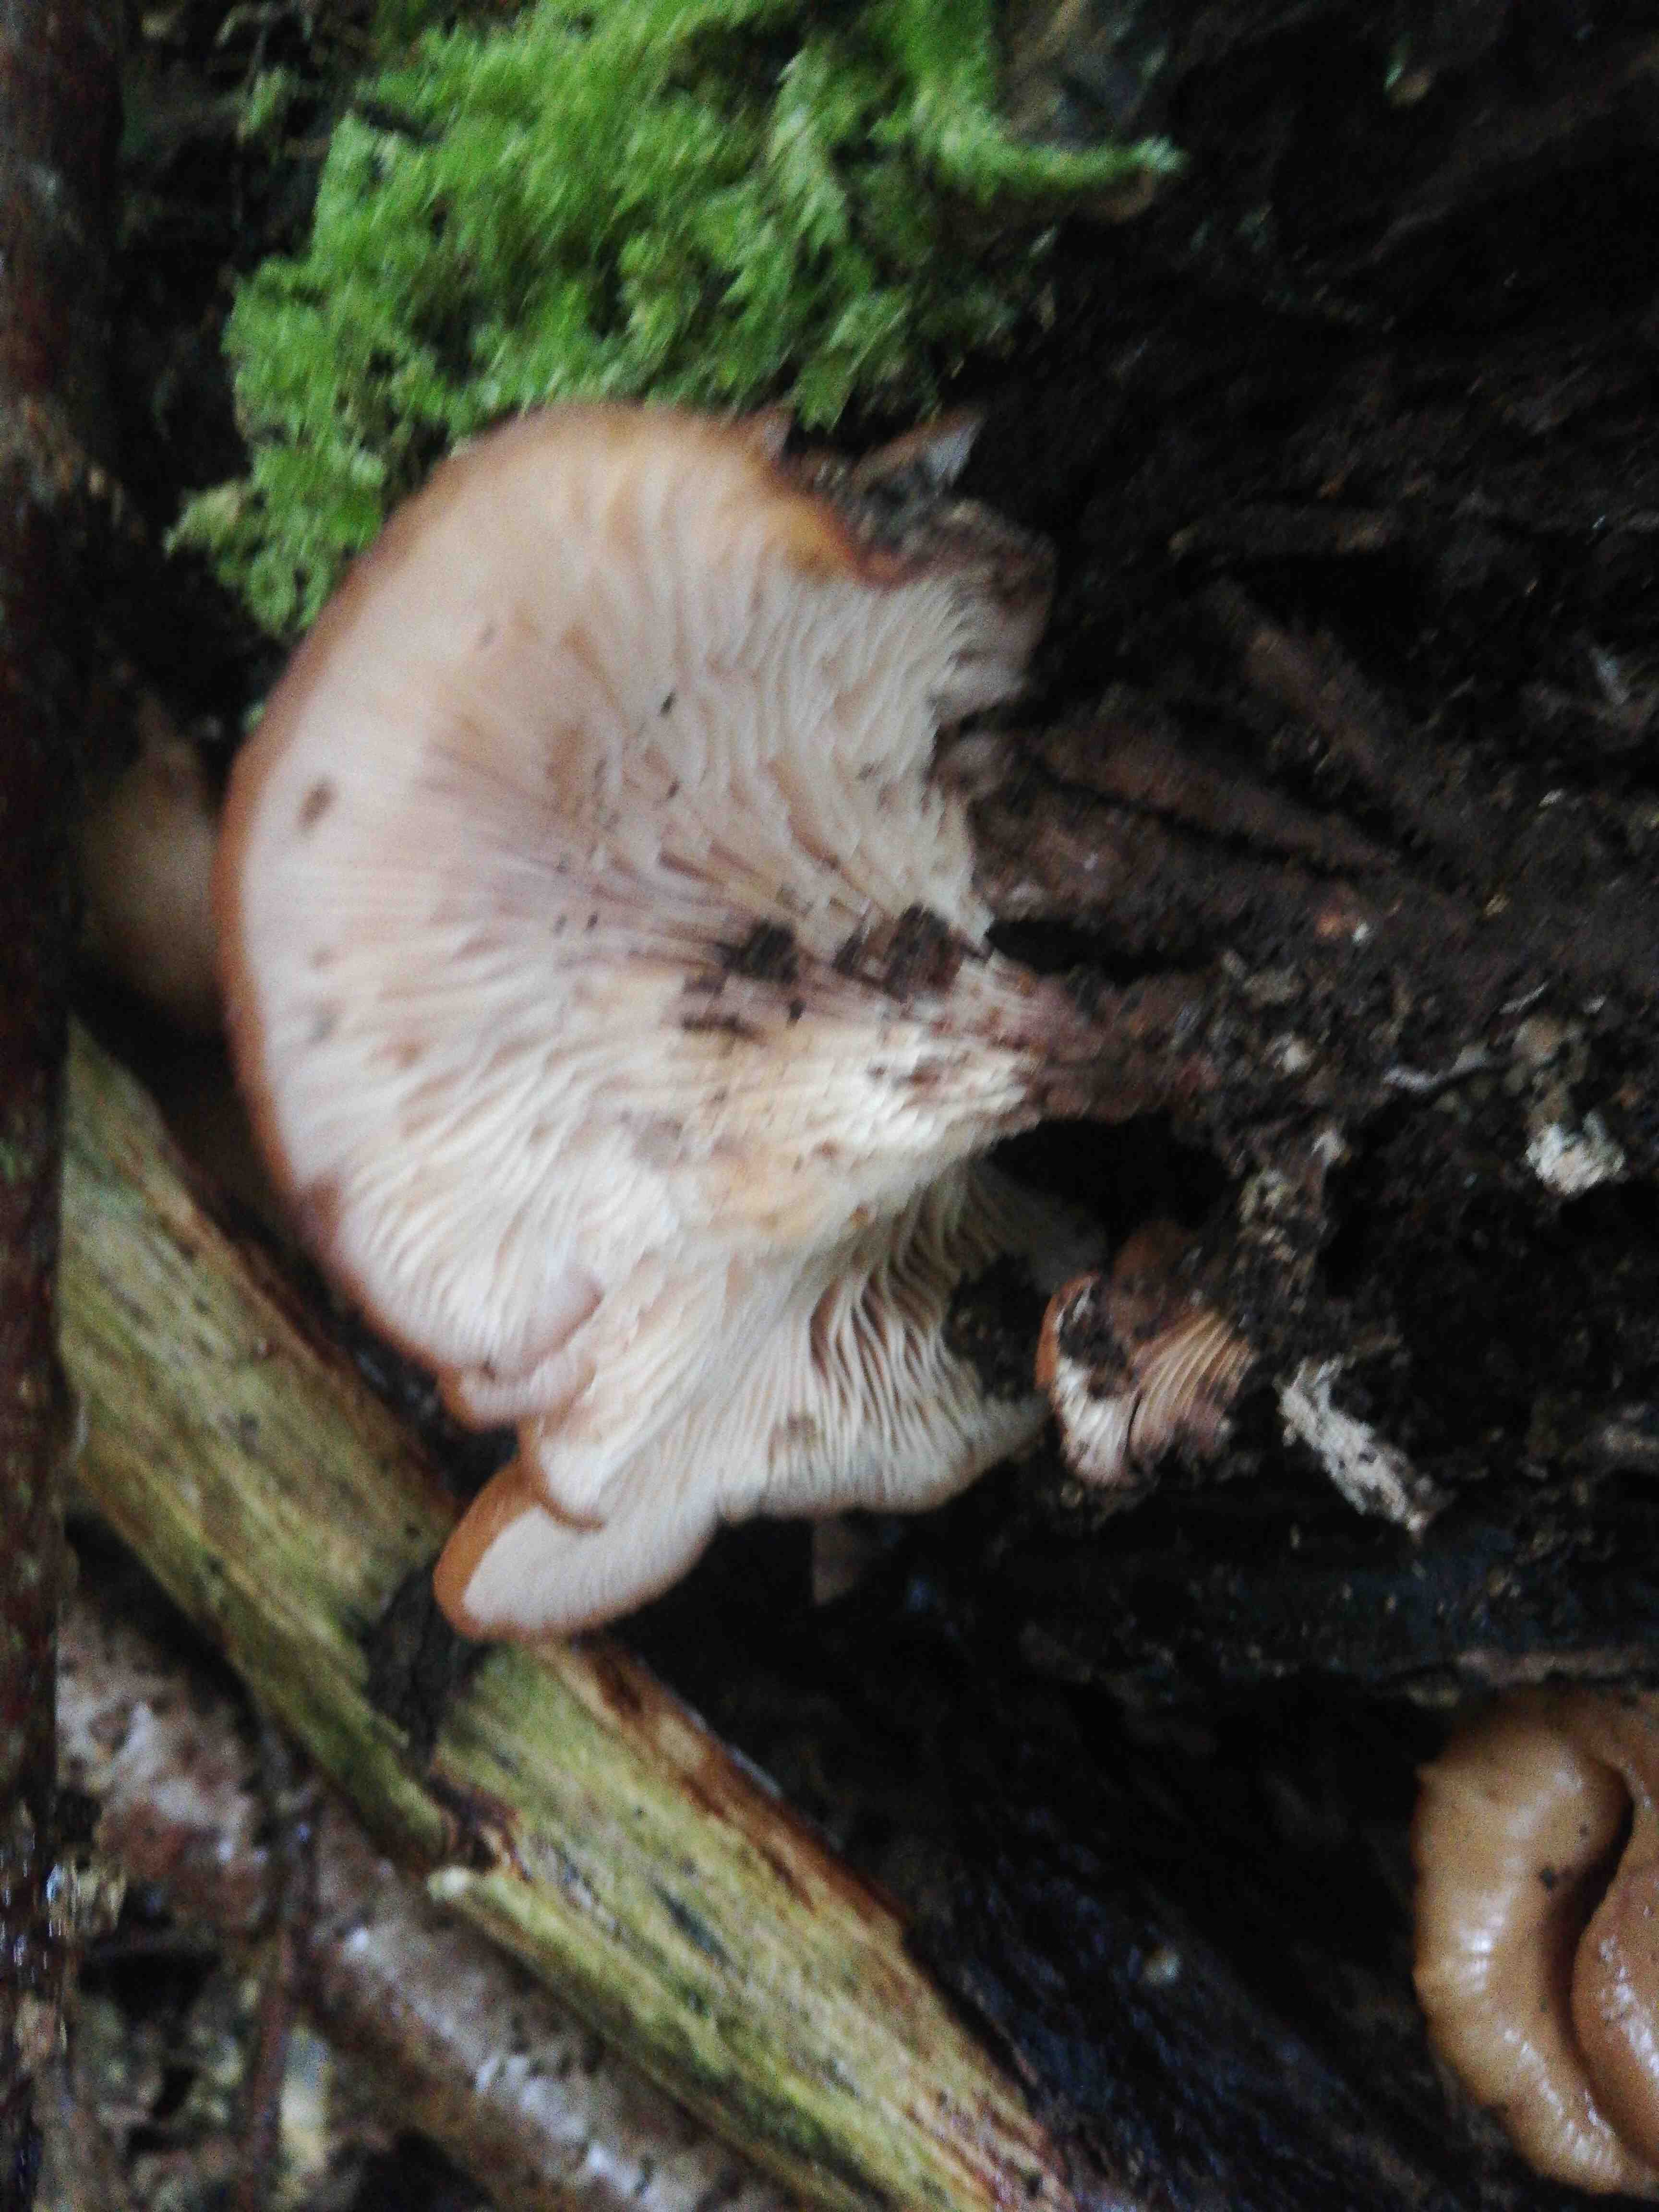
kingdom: Fungi
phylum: Basidiomycota
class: Agaricomycetes
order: Russulales
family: Auriscalpiaceae
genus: Lentinellus
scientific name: Lentinellus cochleatus
